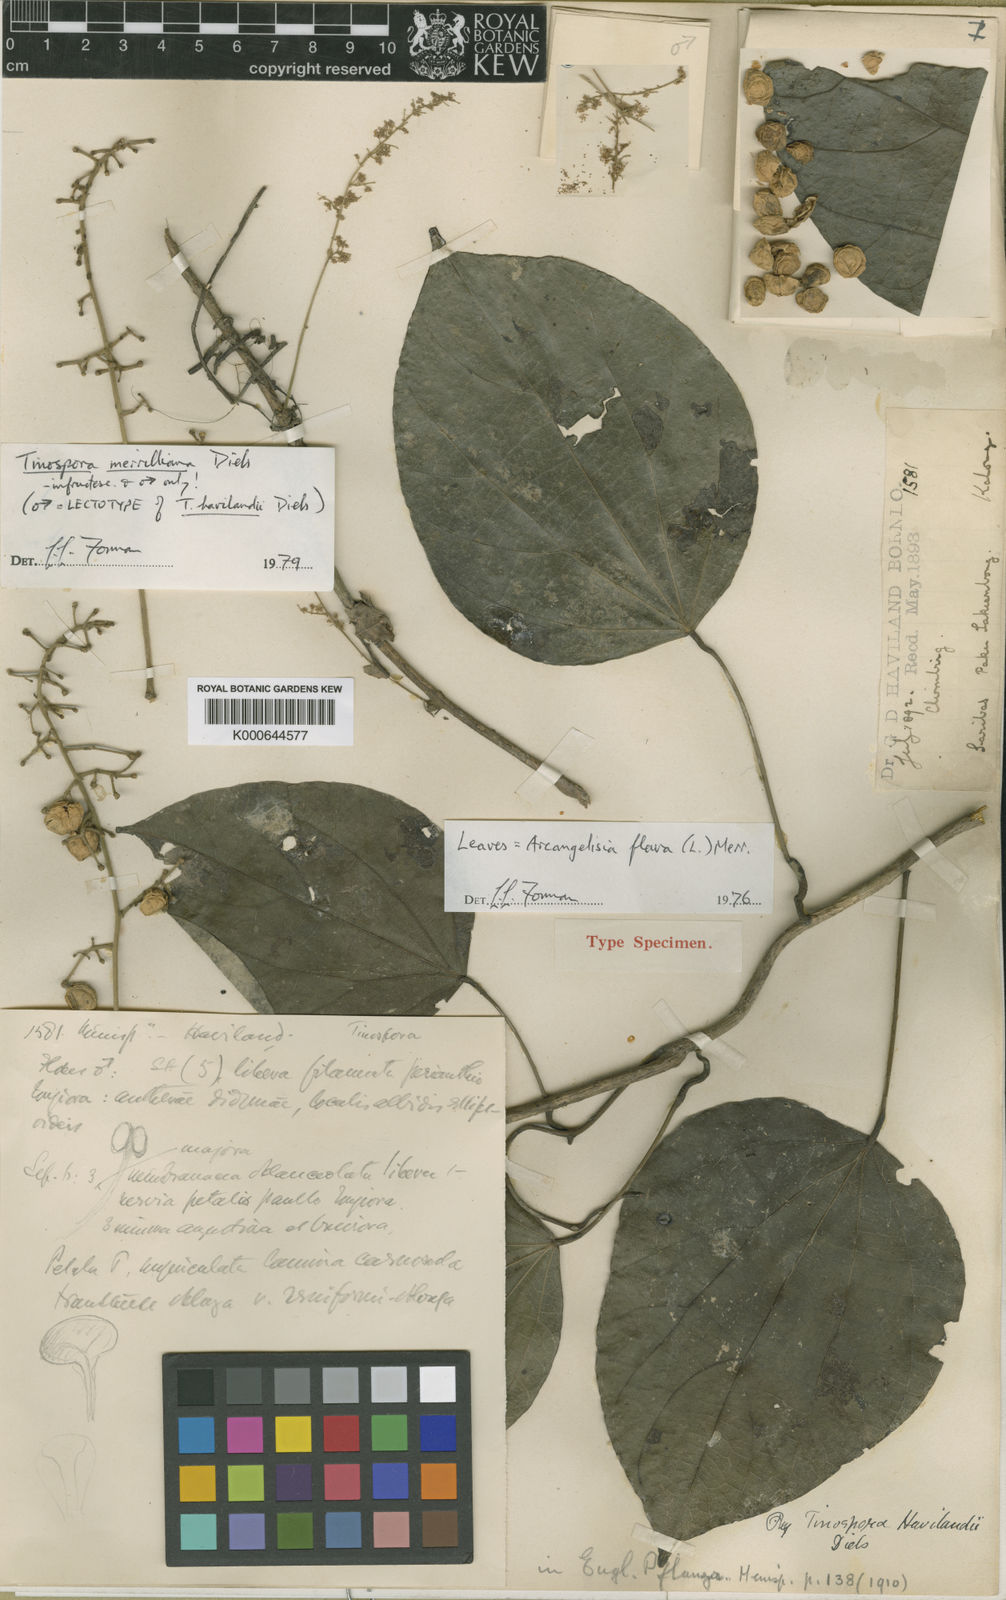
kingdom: Plantae
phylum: Tracheophyta
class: Magnoliopsida
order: Ranunculales
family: Menispermaceae
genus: Tinospora
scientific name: Tinospora merrilliana
